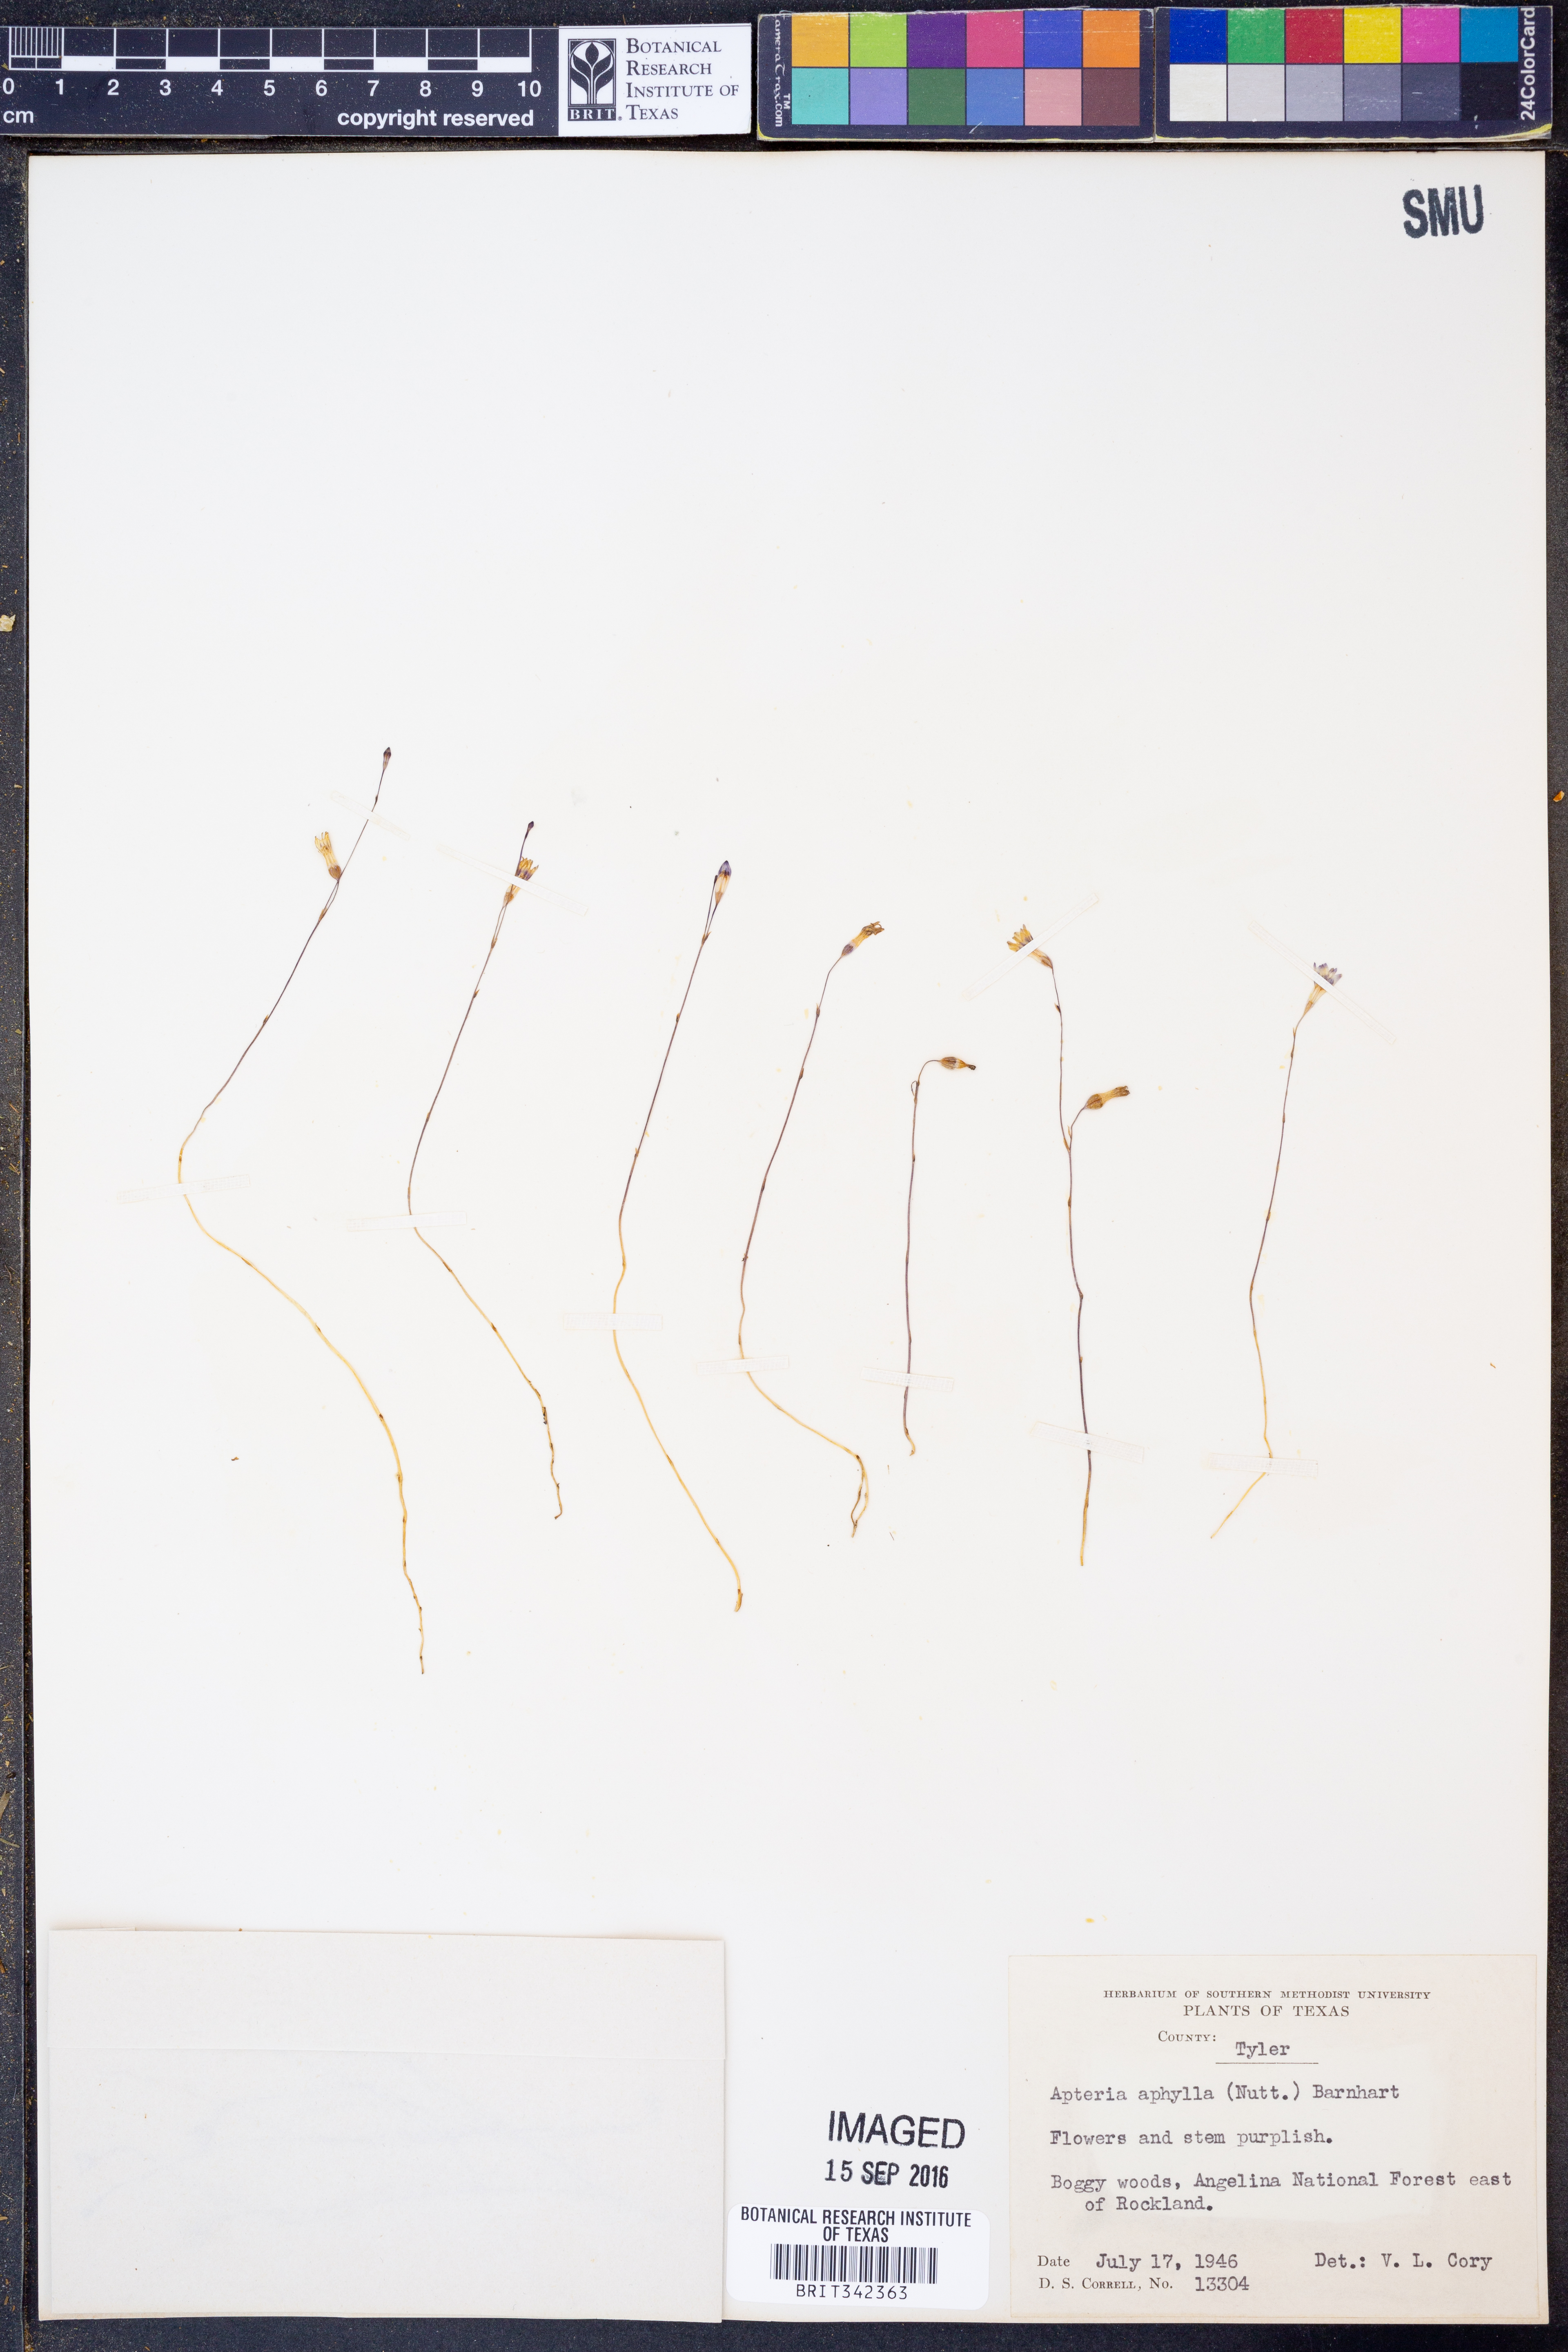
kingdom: Plantae
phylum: Tracheophyta
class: Liliopsida
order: Dioscoreales
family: Burmanniaceae
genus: Apteria
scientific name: Apteria aphylla
